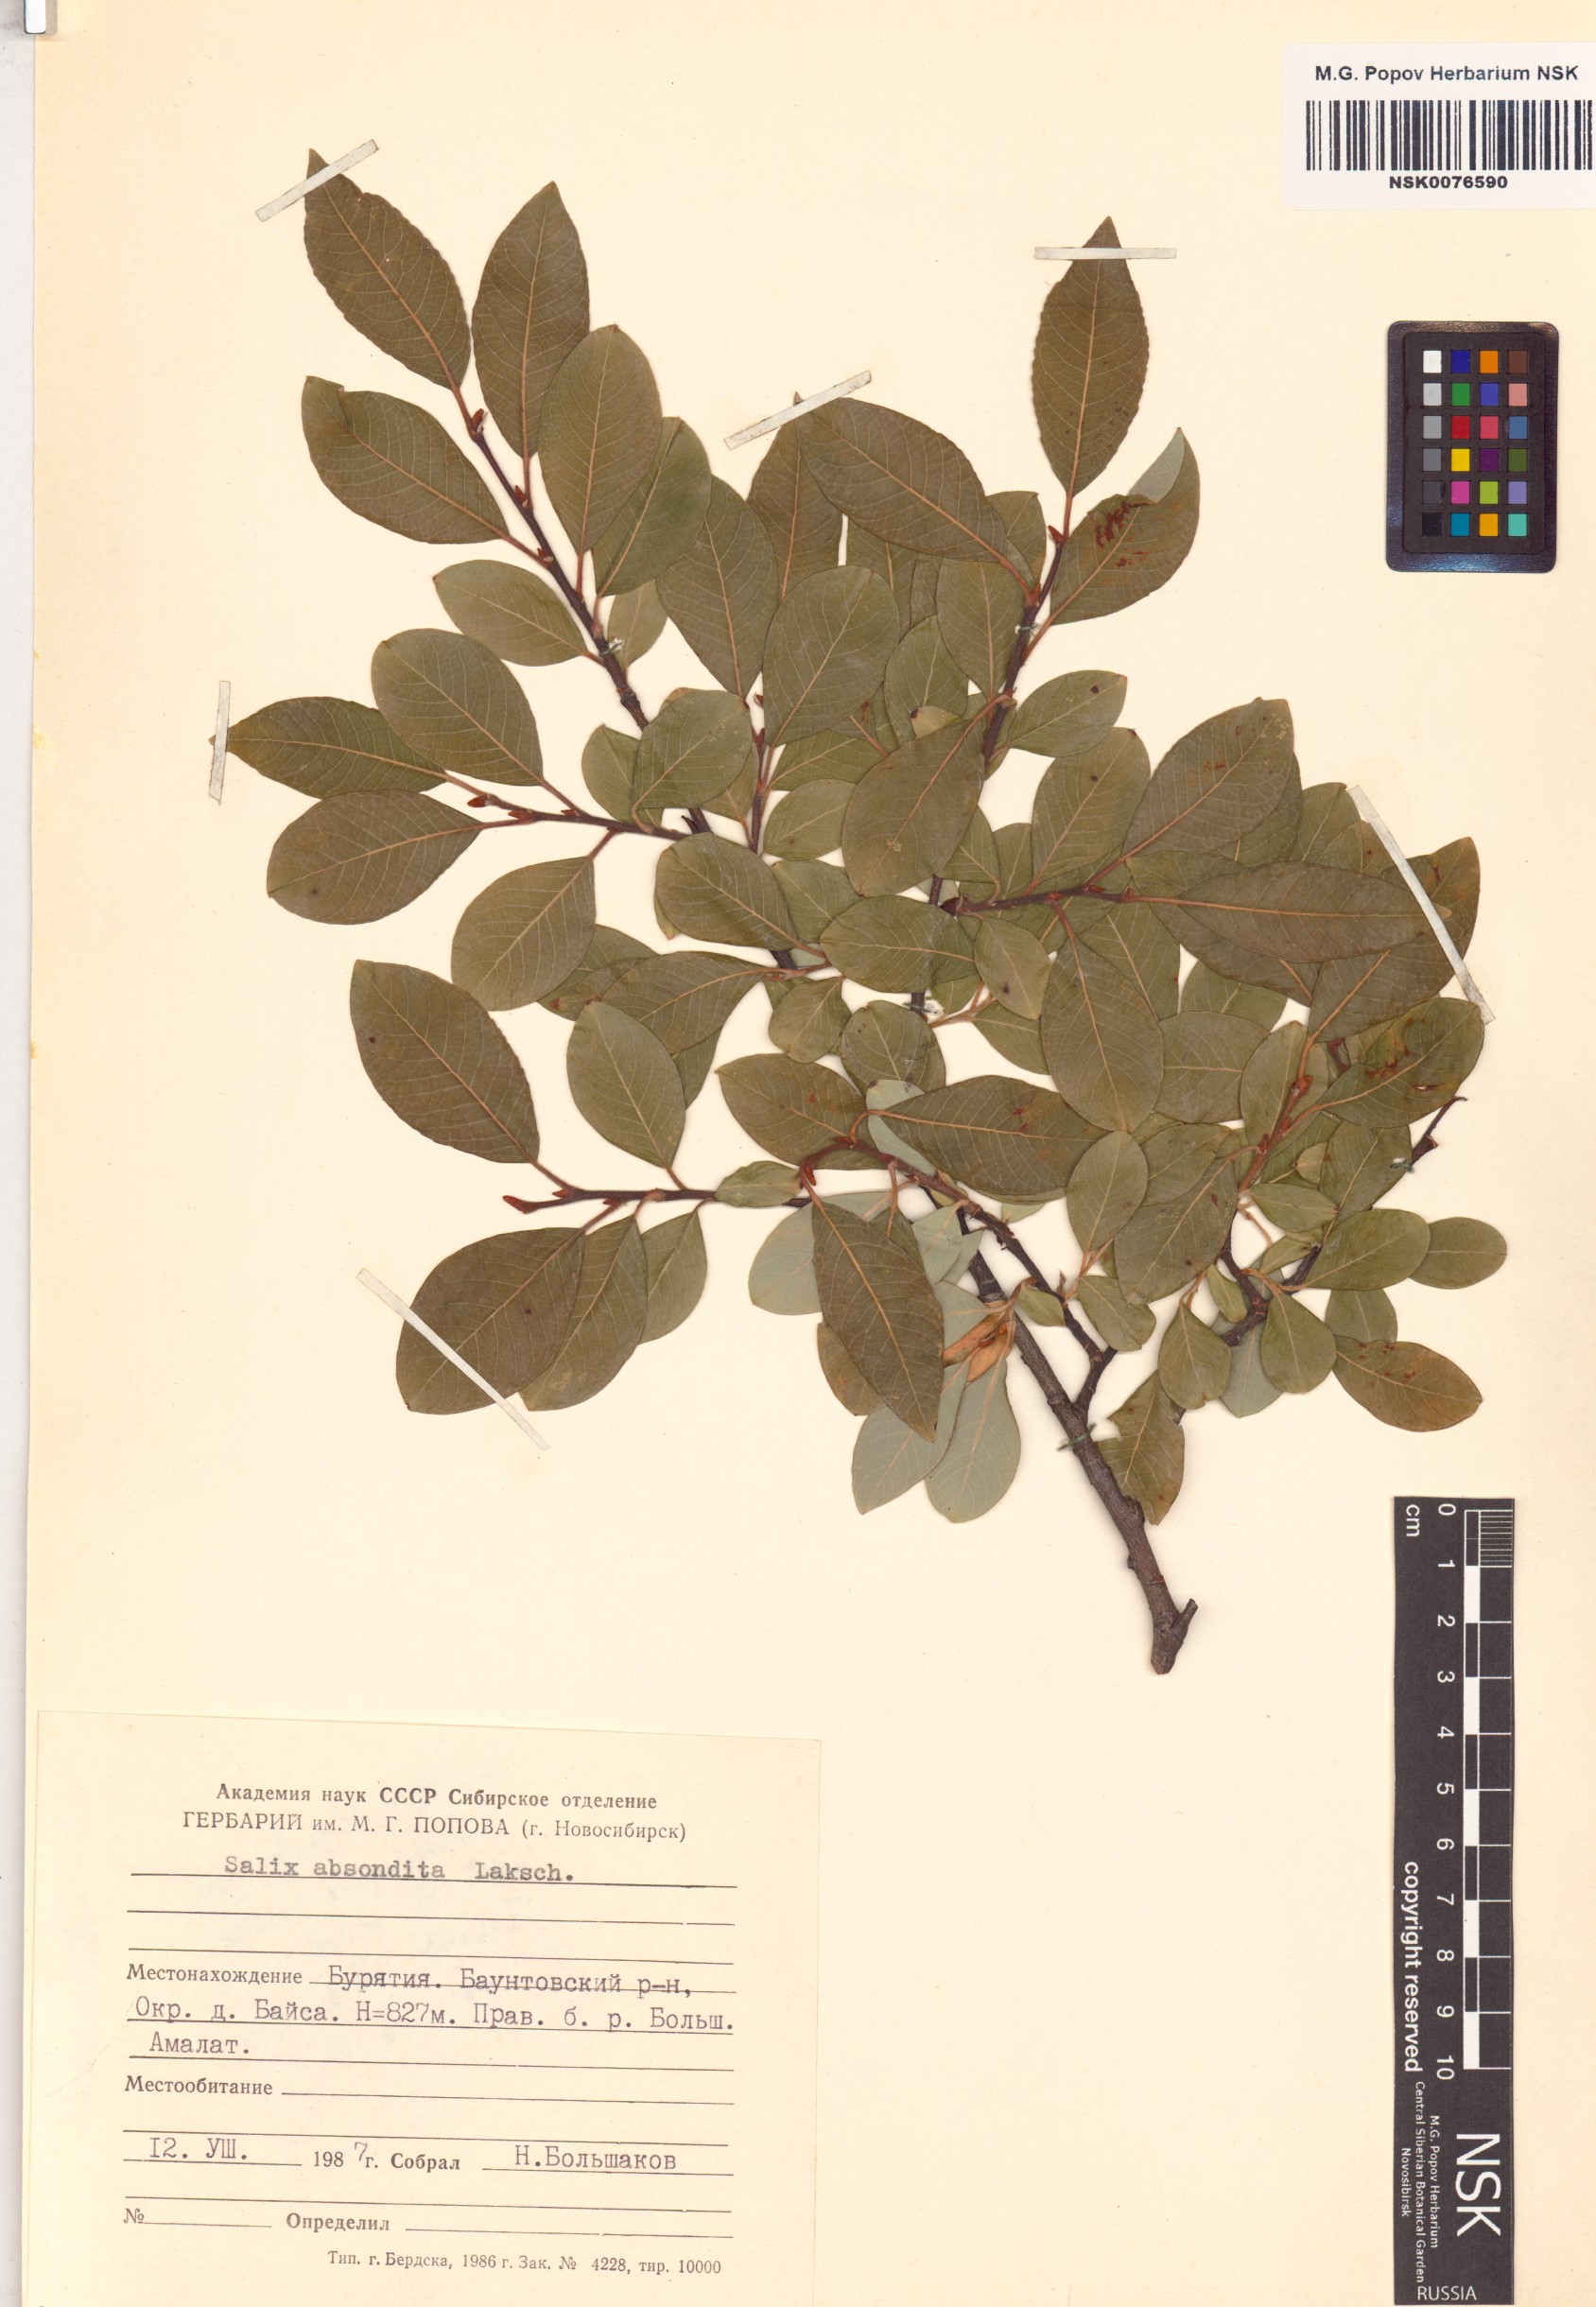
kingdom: Plantae
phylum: Tracheophyta
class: Magnoliopsida
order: Malpighiales
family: Salicaceae
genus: Salix
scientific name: Salix abscondita
